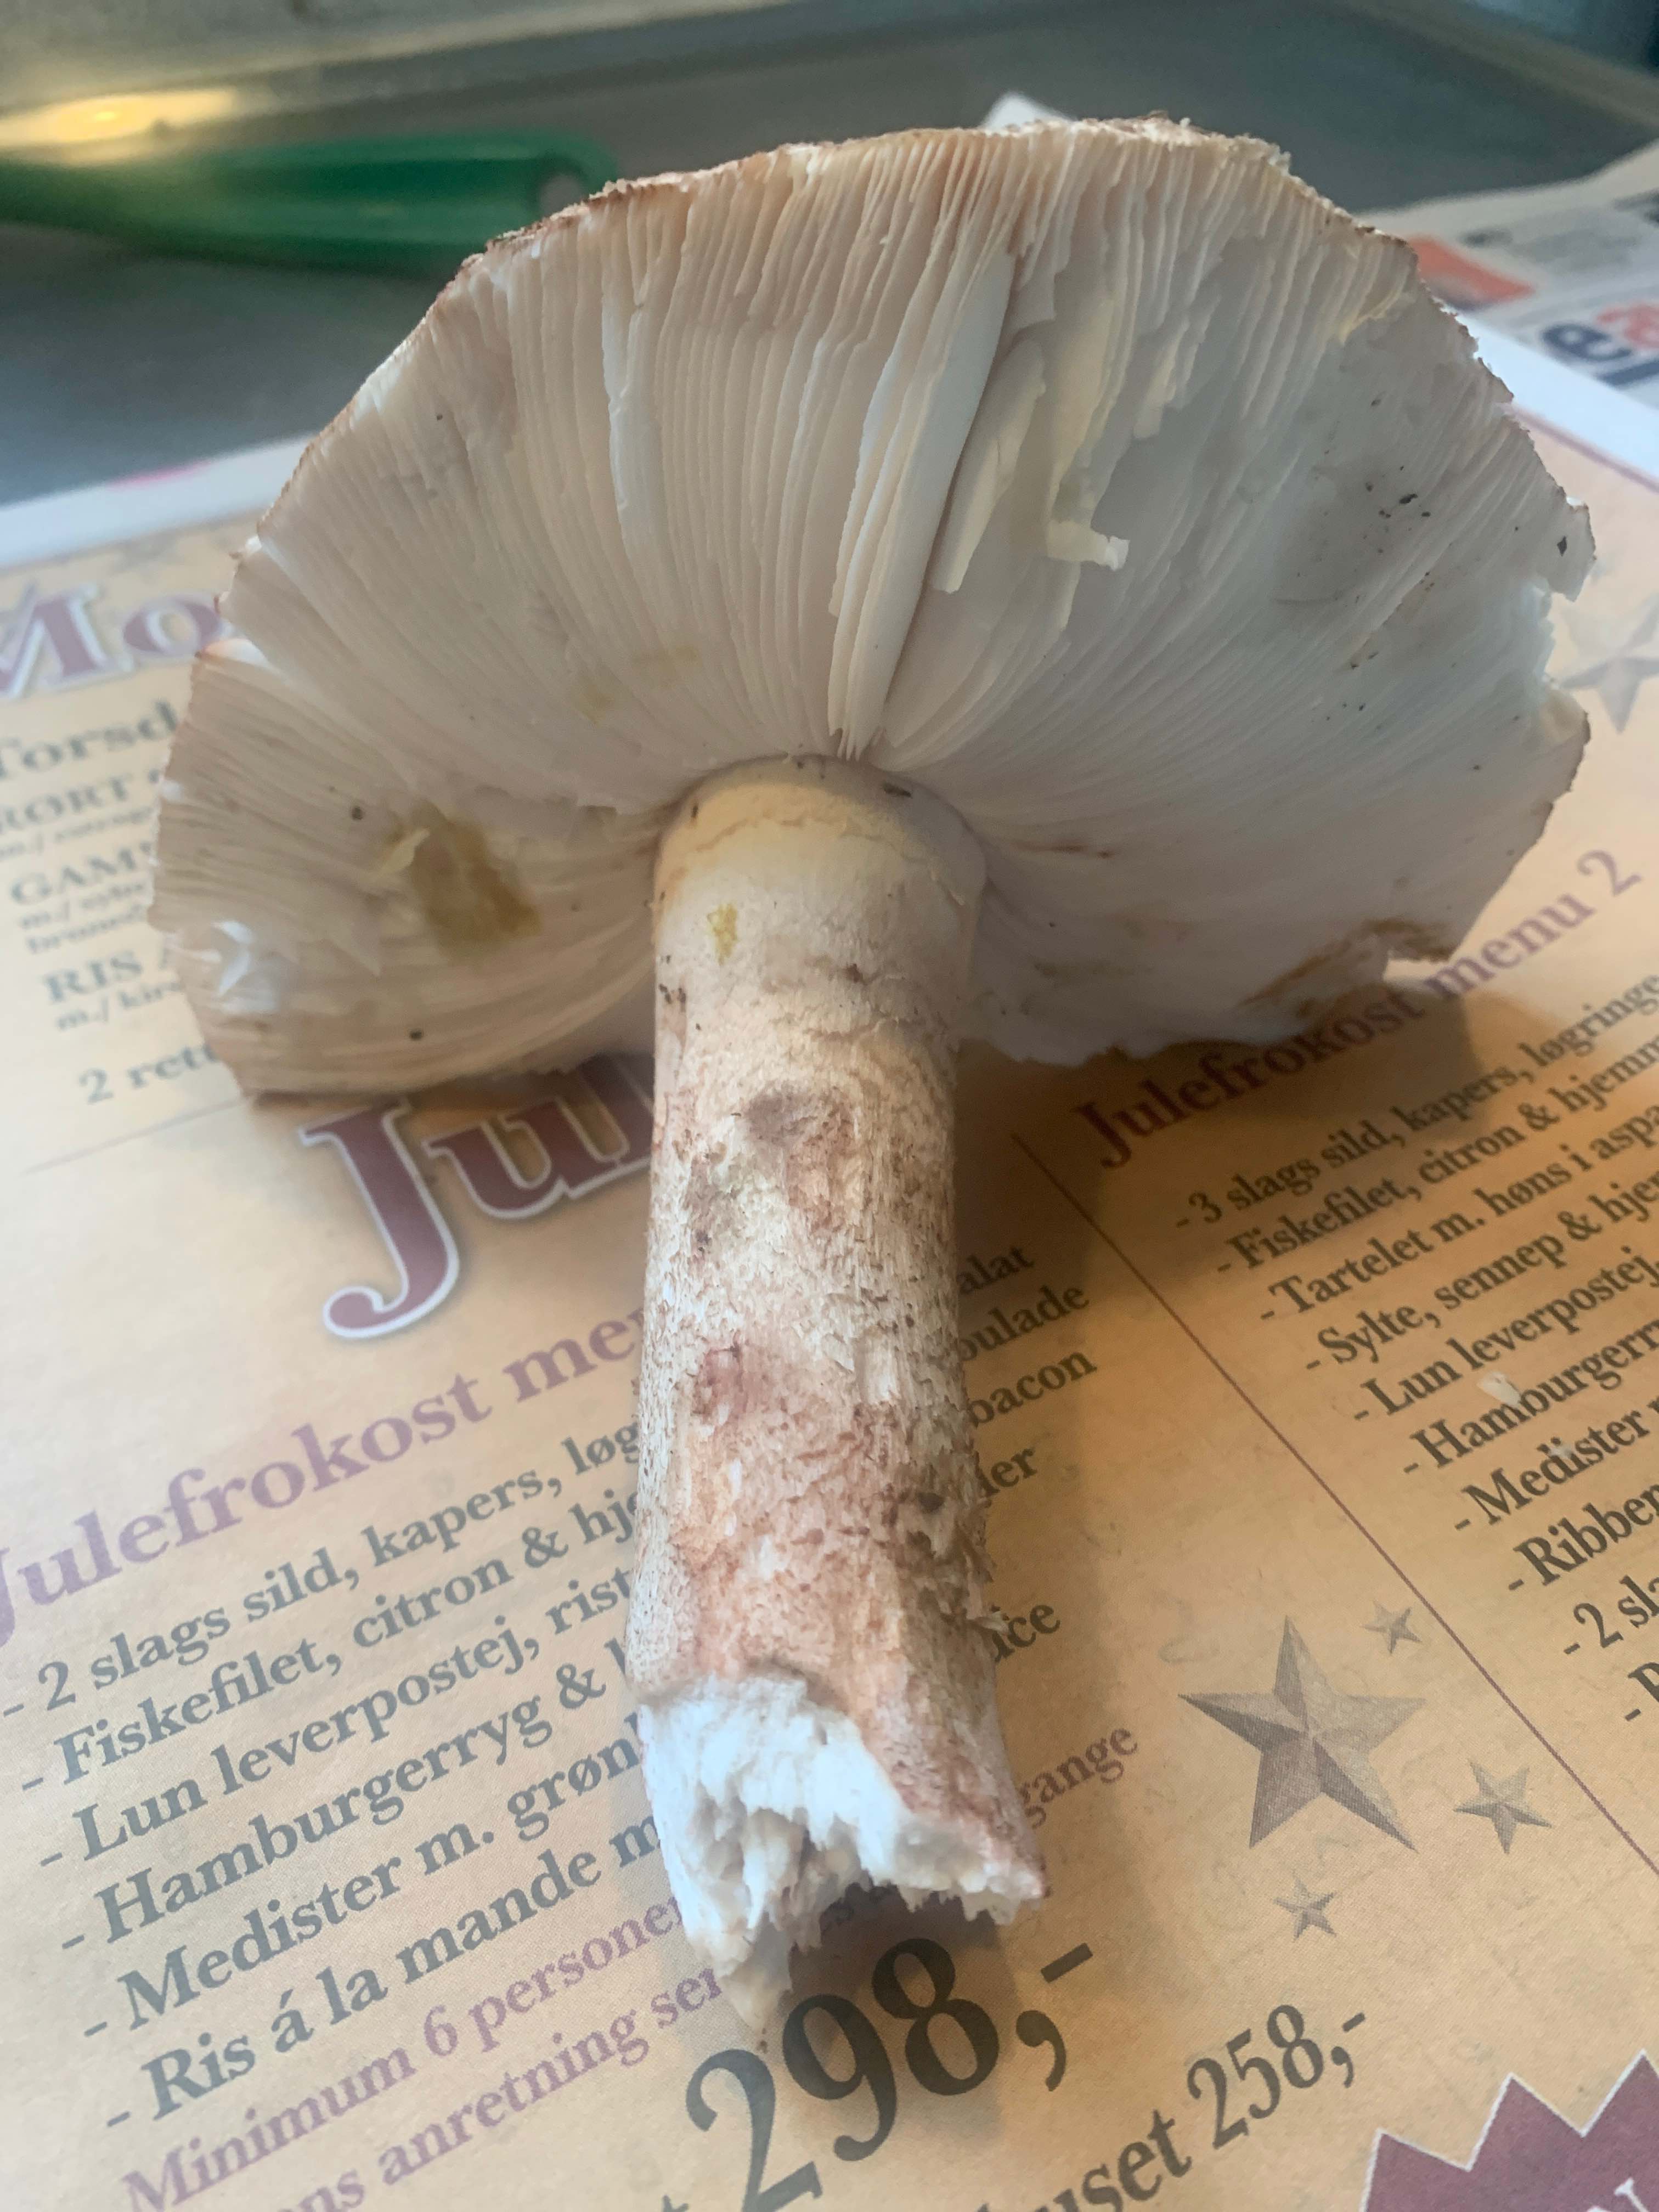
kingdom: Fungi
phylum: Basidiomycota
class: Agaricomycetes
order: Agaricales
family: Amanitaceae
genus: Amanita
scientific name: Amanita rubescens
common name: rødmende fluesvamp
